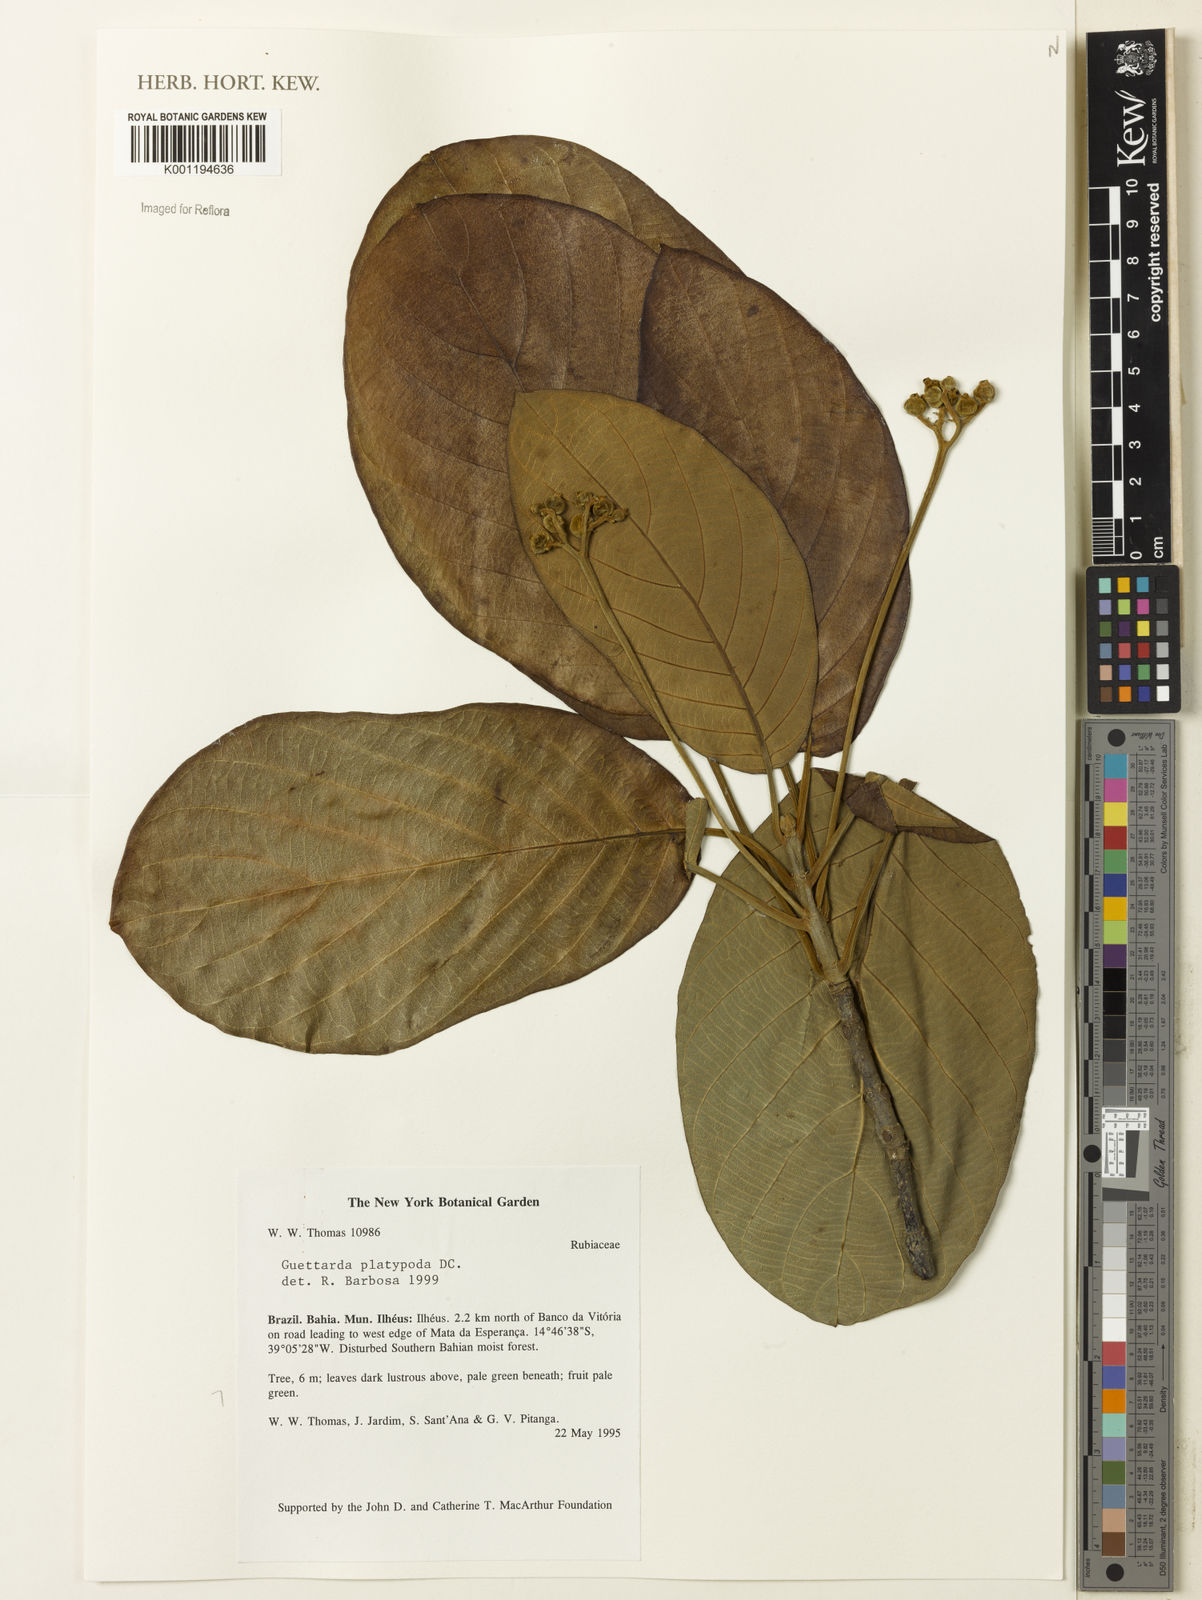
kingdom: Plantae
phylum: Tracheophyta
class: Magnoliopsida
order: Gentianales
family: Rubiaceae
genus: Guettarda
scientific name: Guettarda platypoda
